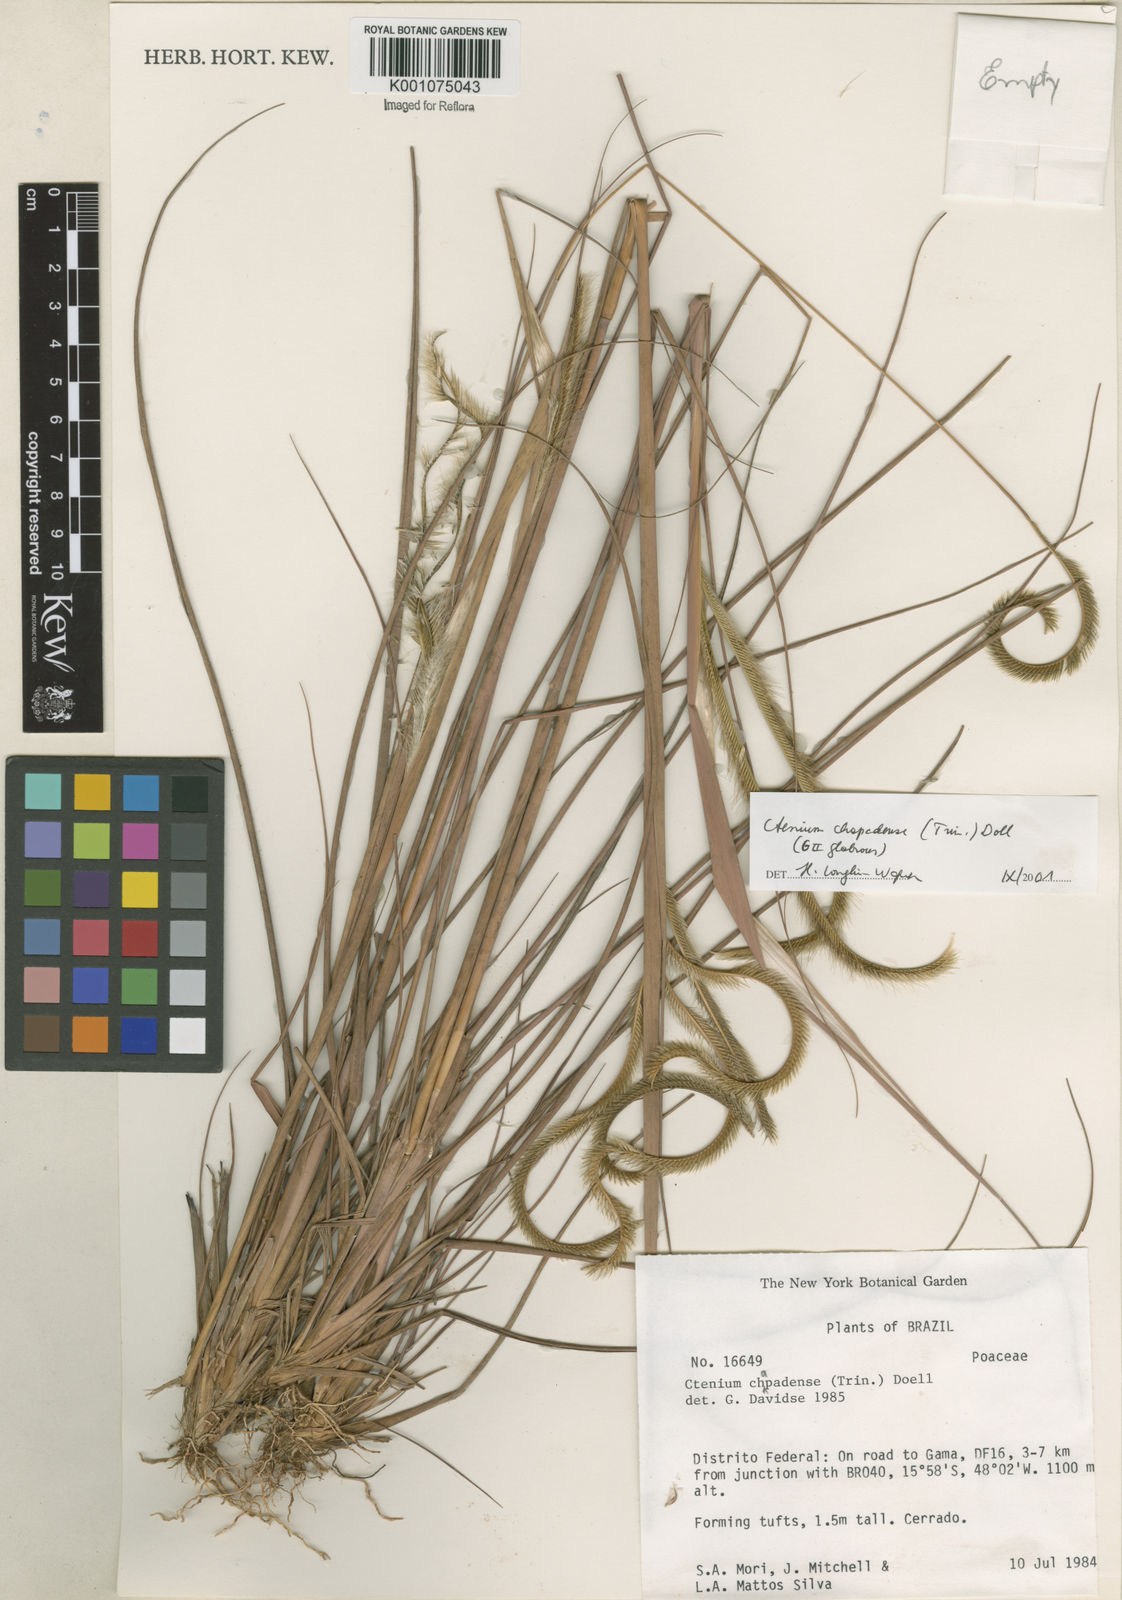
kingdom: Plantae
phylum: Tracheophyta
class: Liliopsida
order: Poales
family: Poaceae
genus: Ctenium
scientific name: Ctenium
